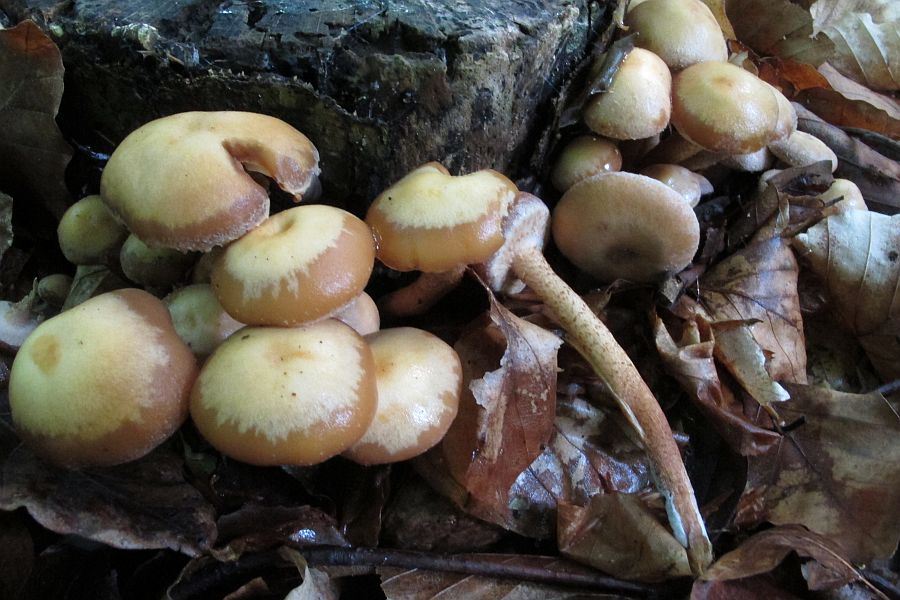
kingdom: Fungi
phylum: Basidiomycota
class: Agaricomycetes
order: Agaricales
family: Strophariaceae
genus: Kuehneromyces
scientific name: Kuehneromyces mutabilis
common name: foranderlig skælhat
